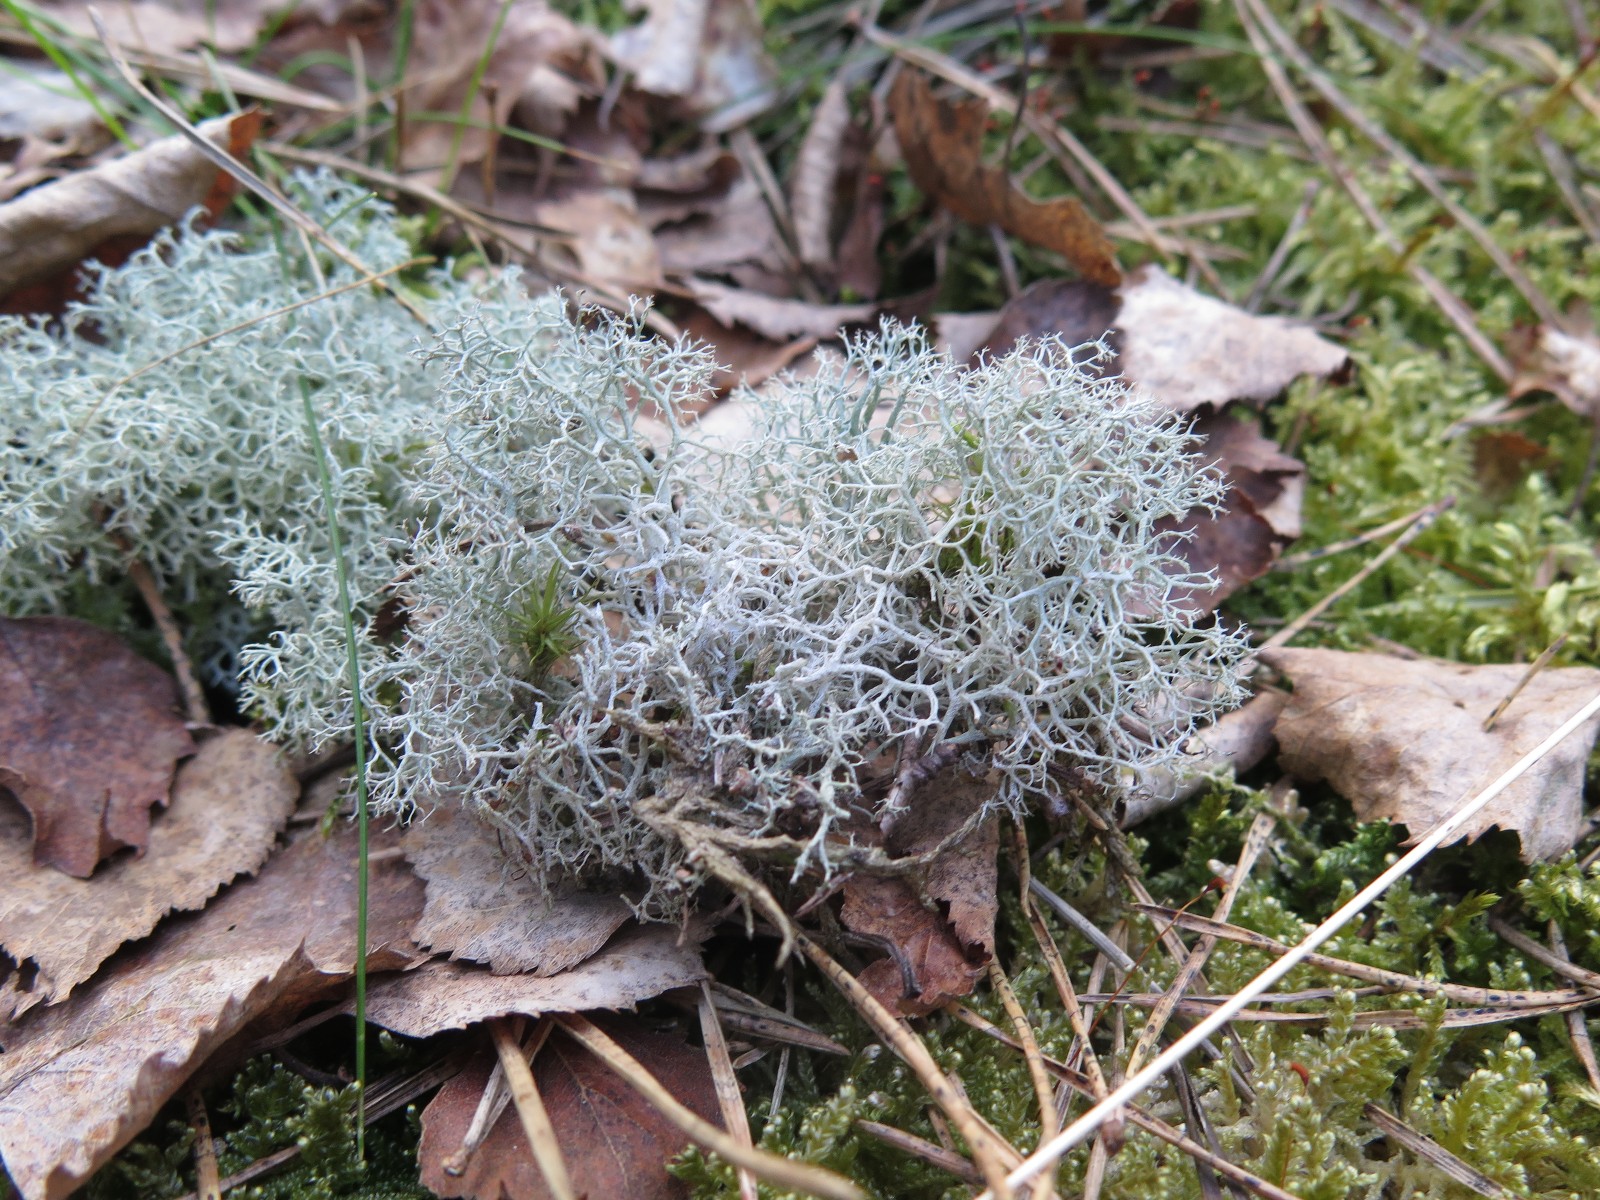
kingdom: Fungi
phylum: Ascomycota
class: Lecanoromycetes
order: Lecanorales
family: Cladoniaceae
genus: Cladonia
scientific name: Cladonia portentosa
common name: hede-rensdyrlav
